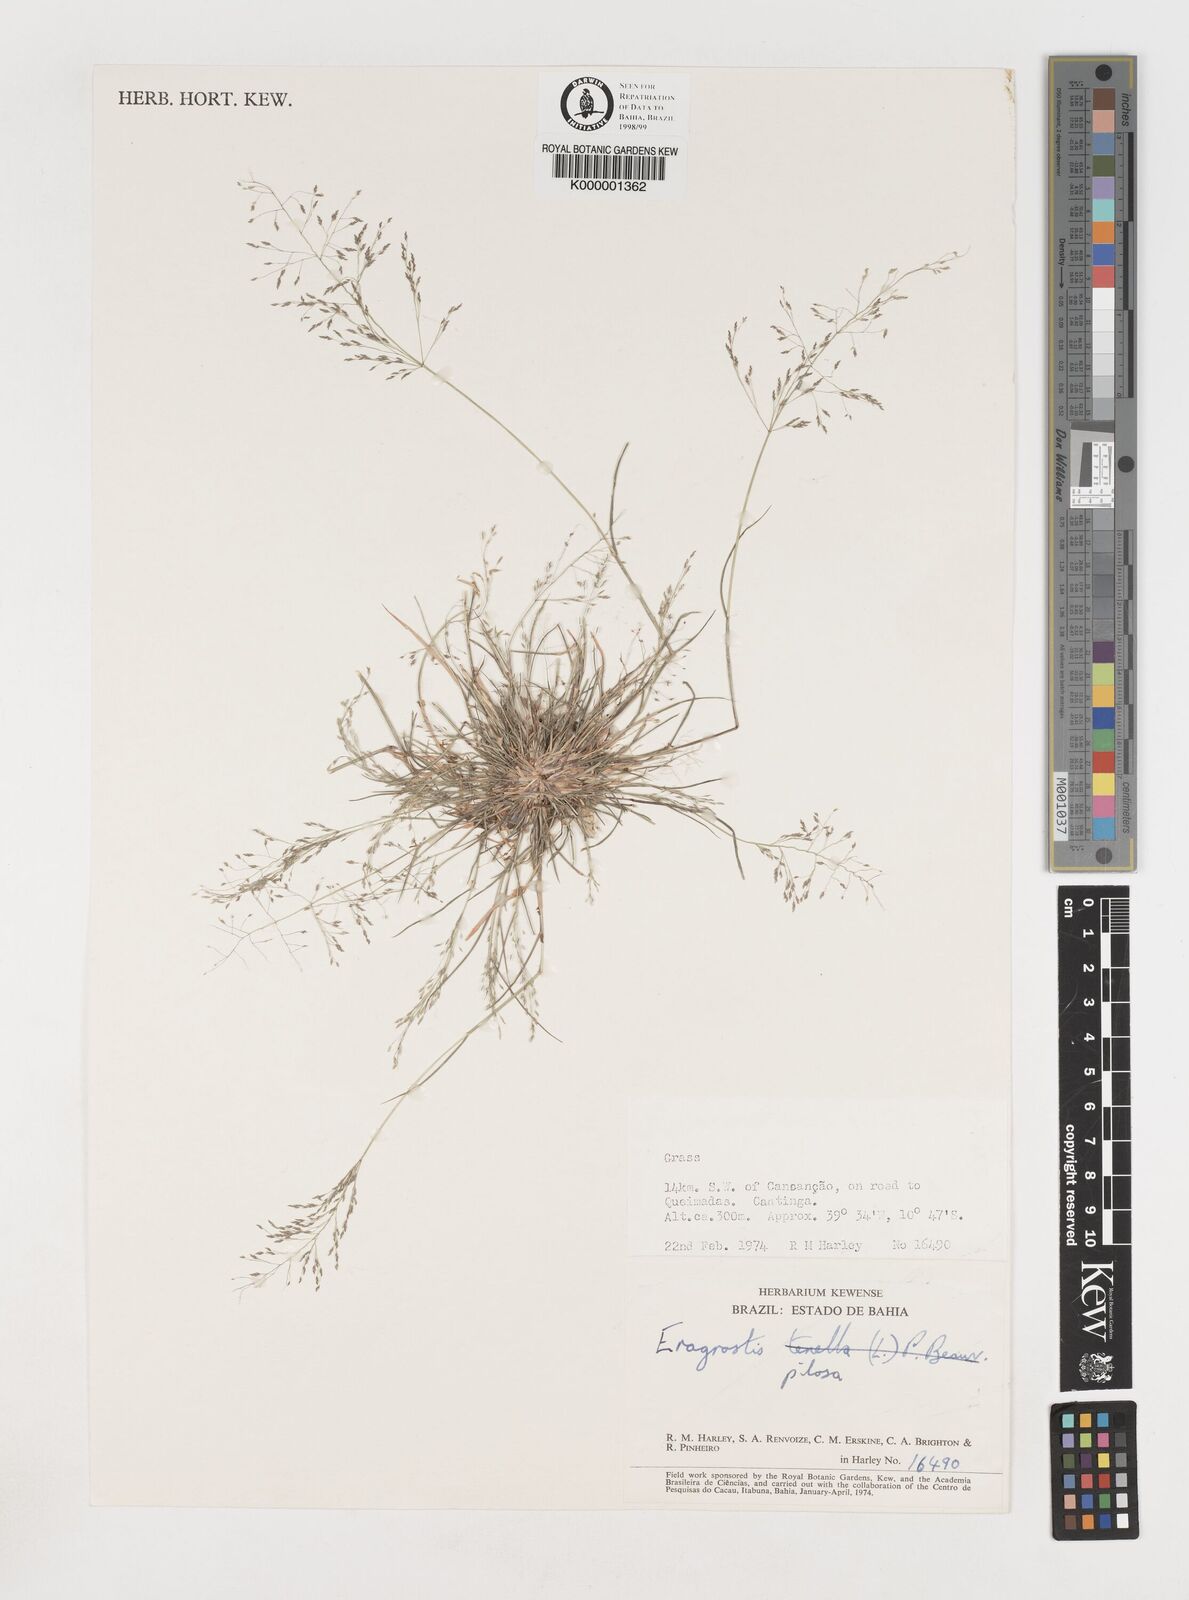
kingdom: Plantae
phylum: Tracheophyta
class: Liliopsida
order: Poales
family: Poaceae
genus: Eragrostis
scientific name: Eragrostis pilosa
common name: Indian lovegrass
